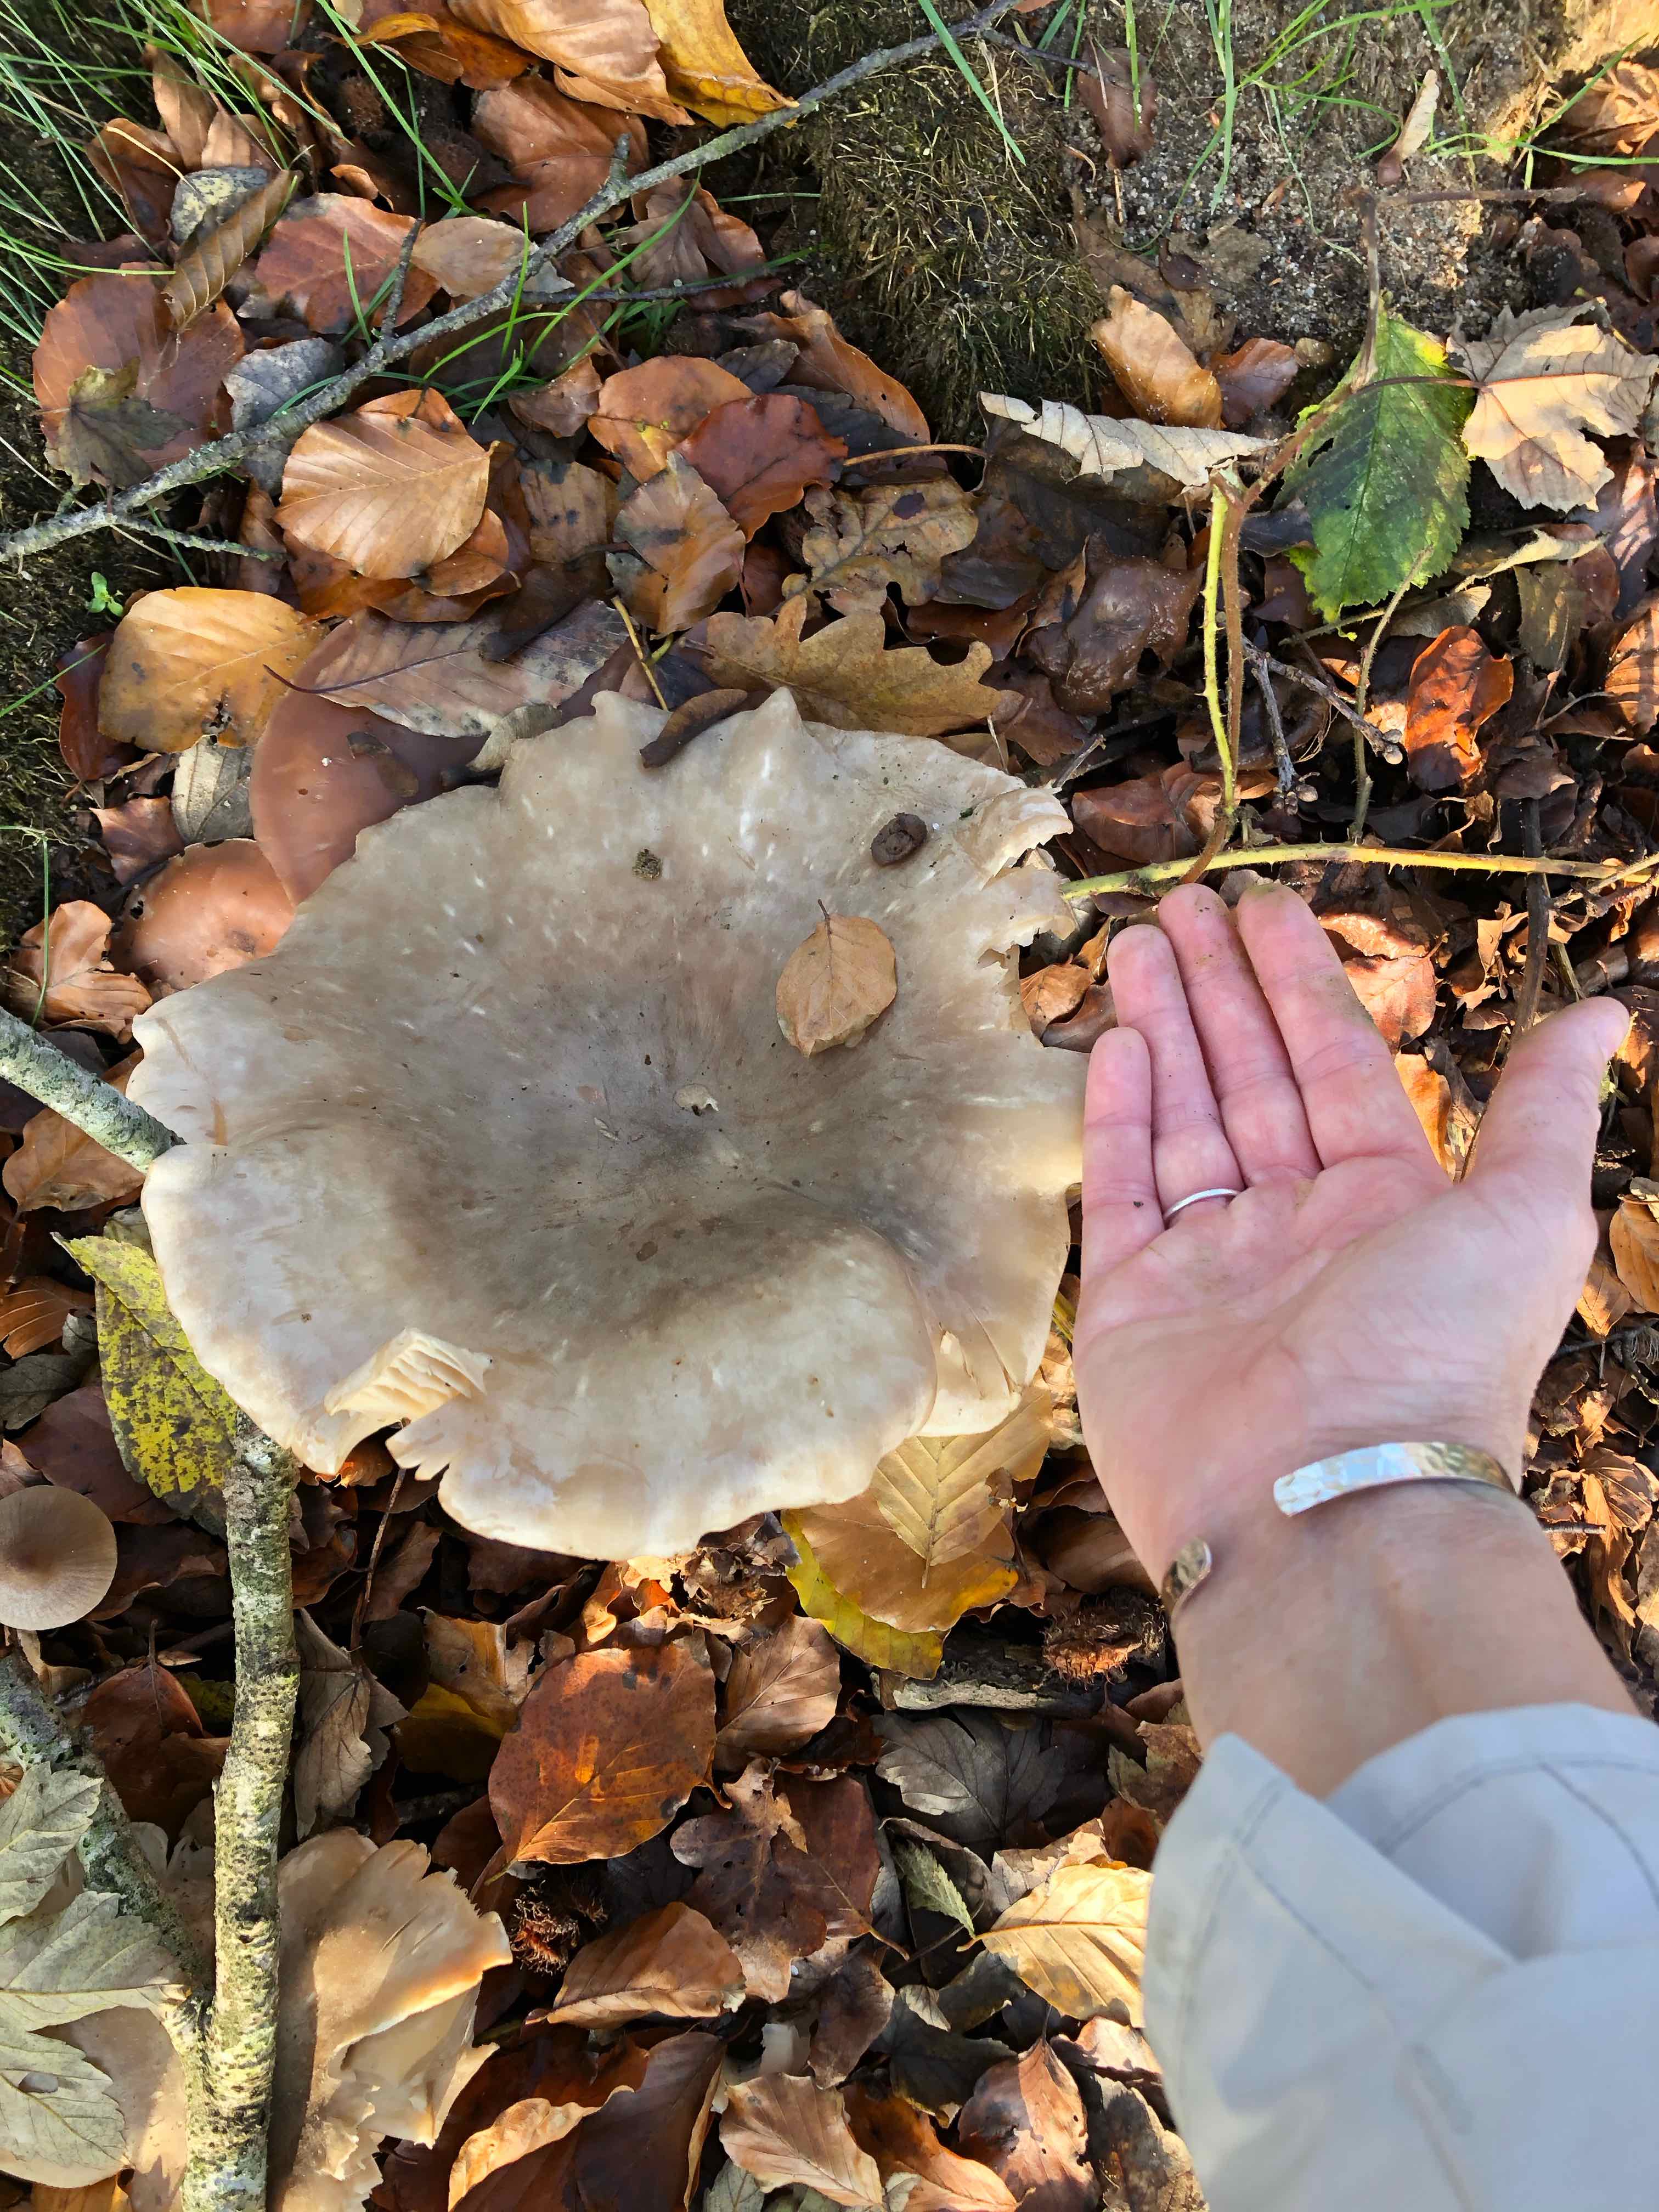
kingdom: Fungi
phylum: Basidiomycota
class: Agaricomycetes
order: Agaricales
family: Tricholomataceae
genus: Clitocybe
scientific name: Clitocybe nebularis
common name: tåge-tragthat
